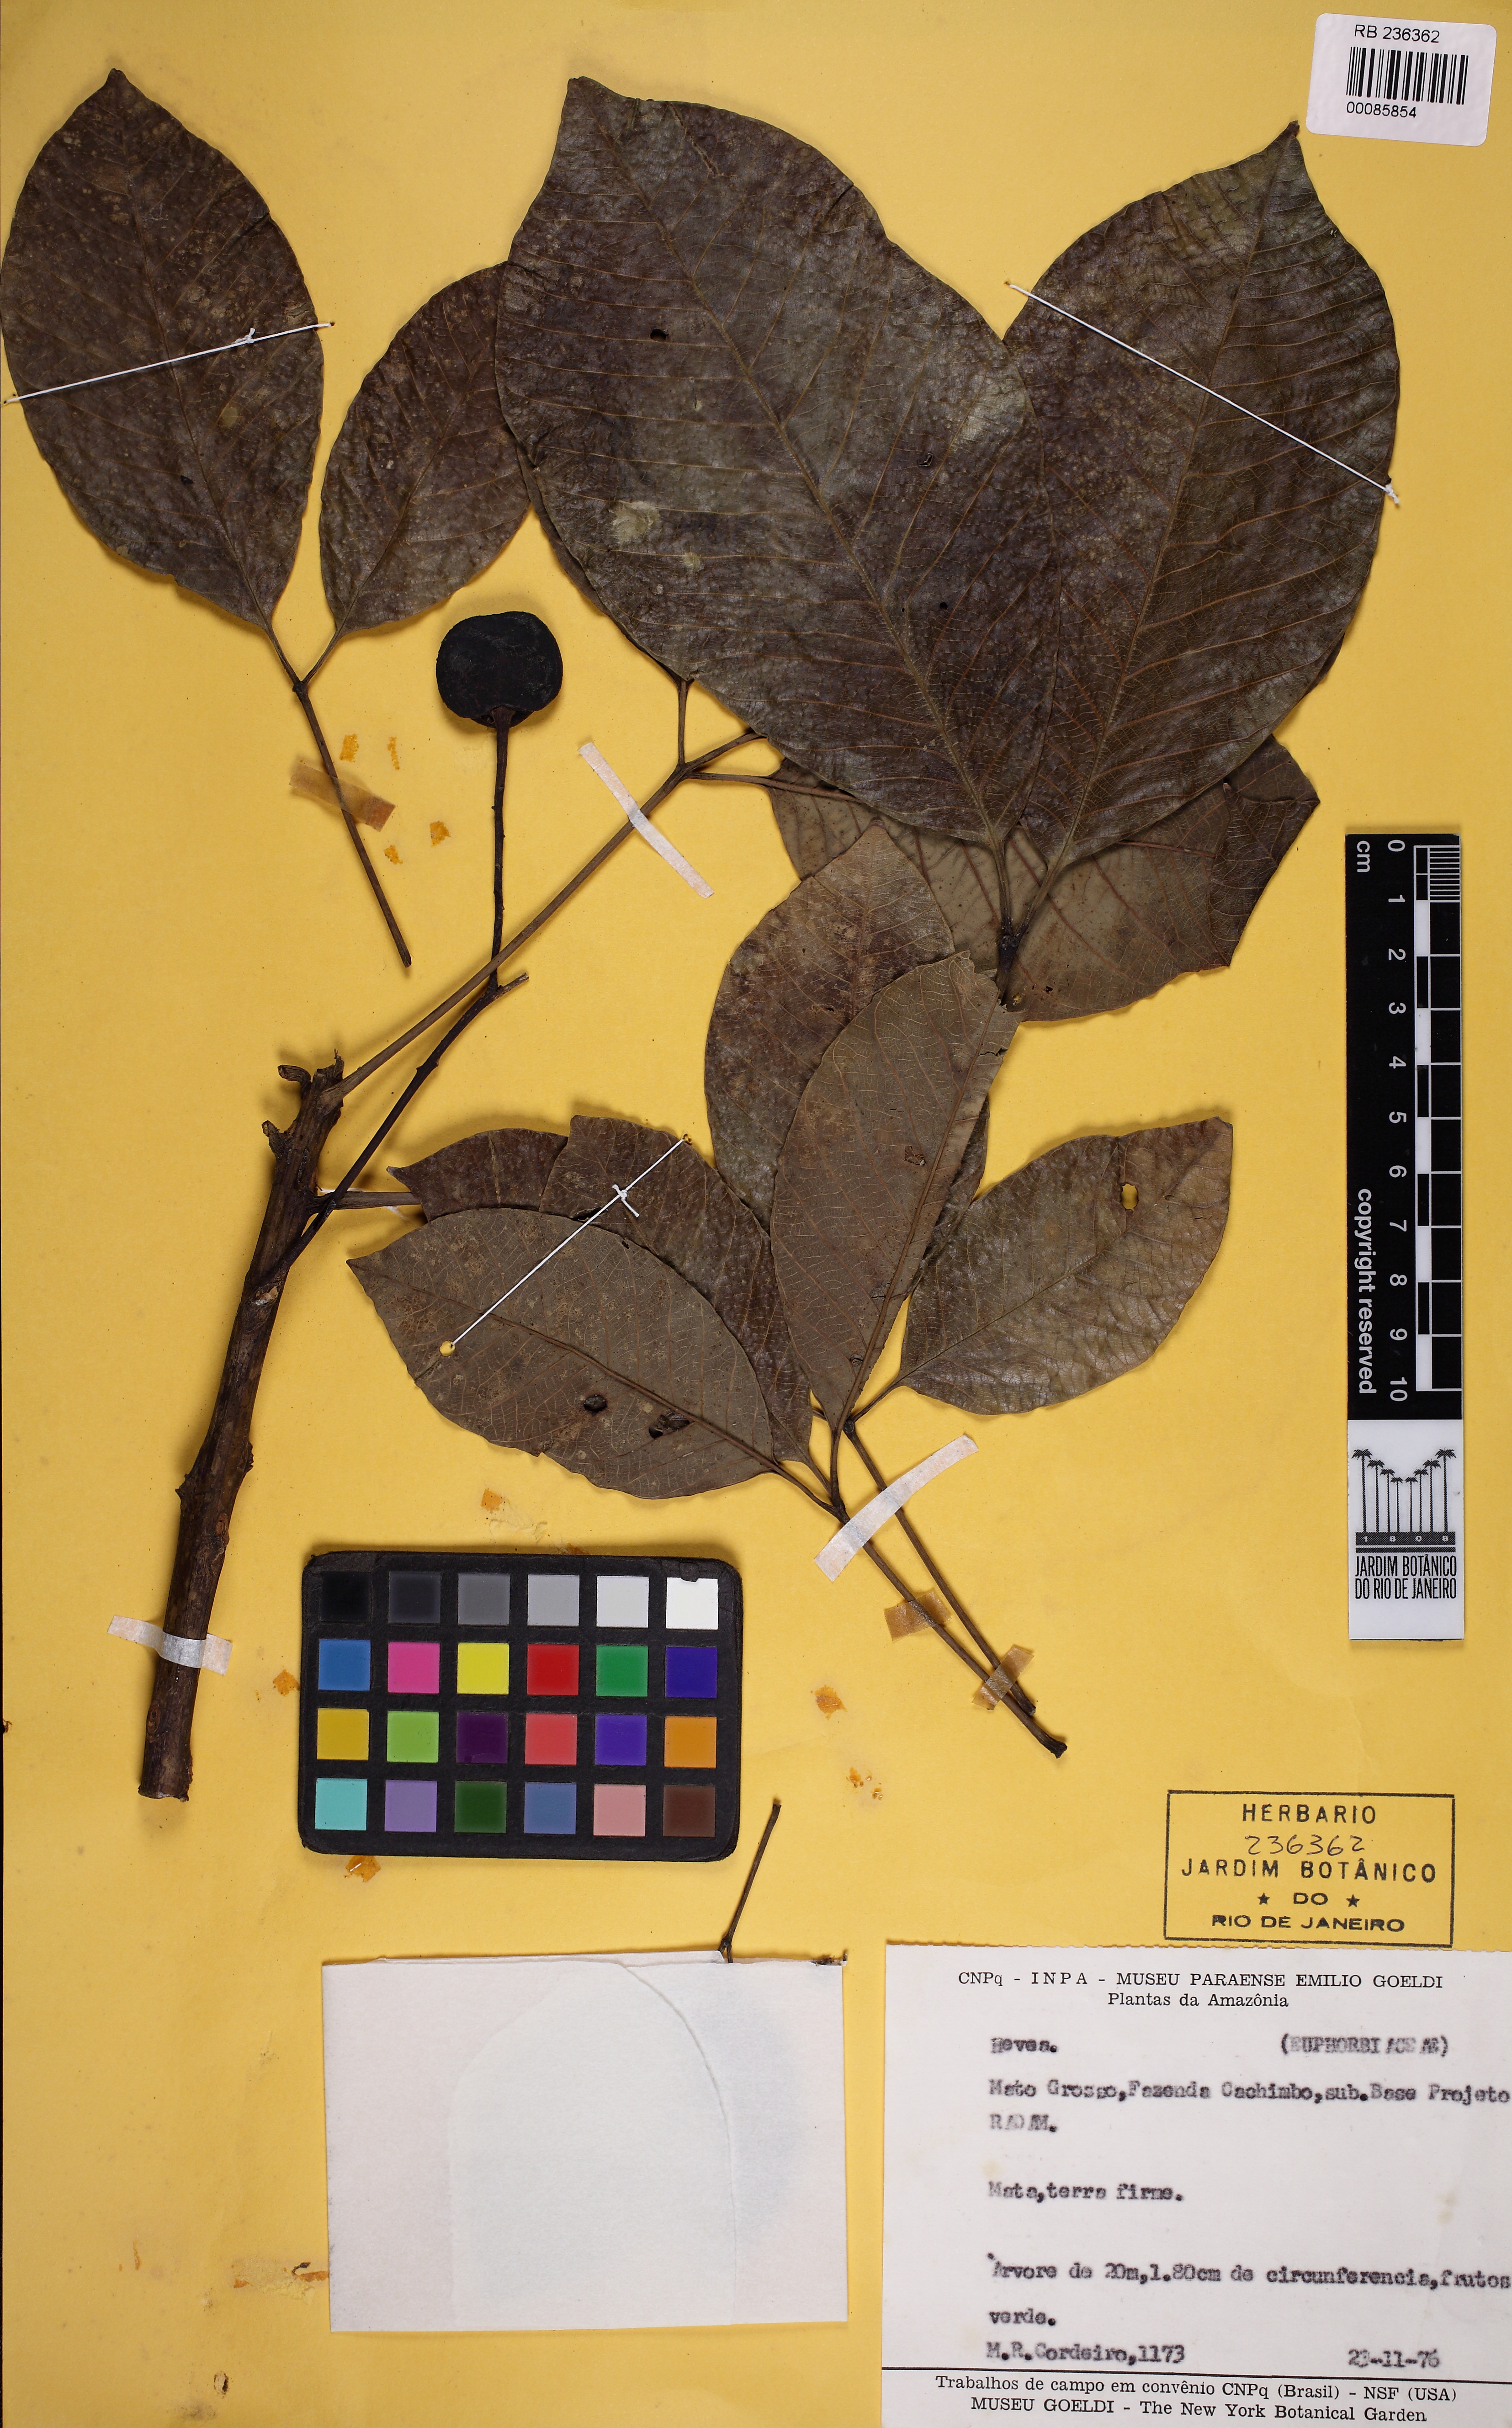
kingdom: Plantae
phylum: Tracheophyta
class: Magnoliopsida
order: Malpighiales
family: Euphorbiaceae
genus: Hevea
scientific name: Hevea
